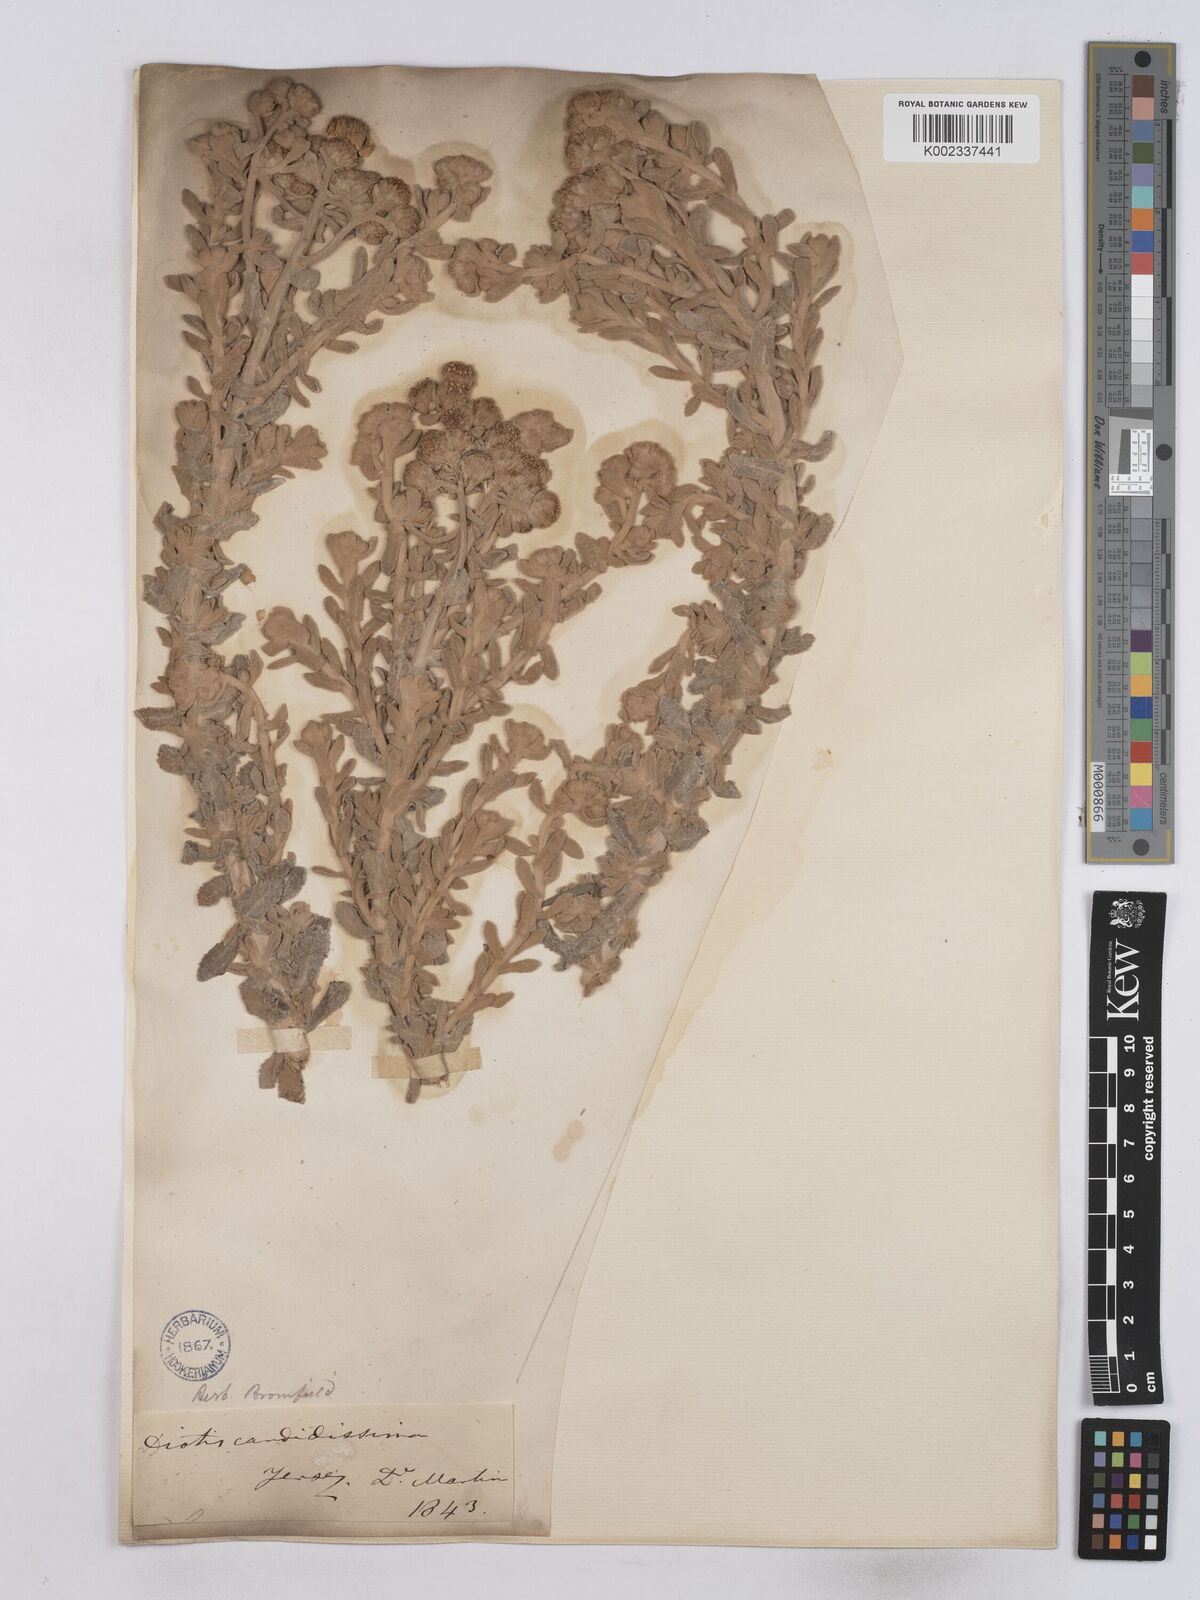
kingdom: Plantae
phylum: Tracheophyta
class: Magnoliopsida
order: Asterales
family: Asteraceae
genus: Achillea
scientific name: Achillea maritima
